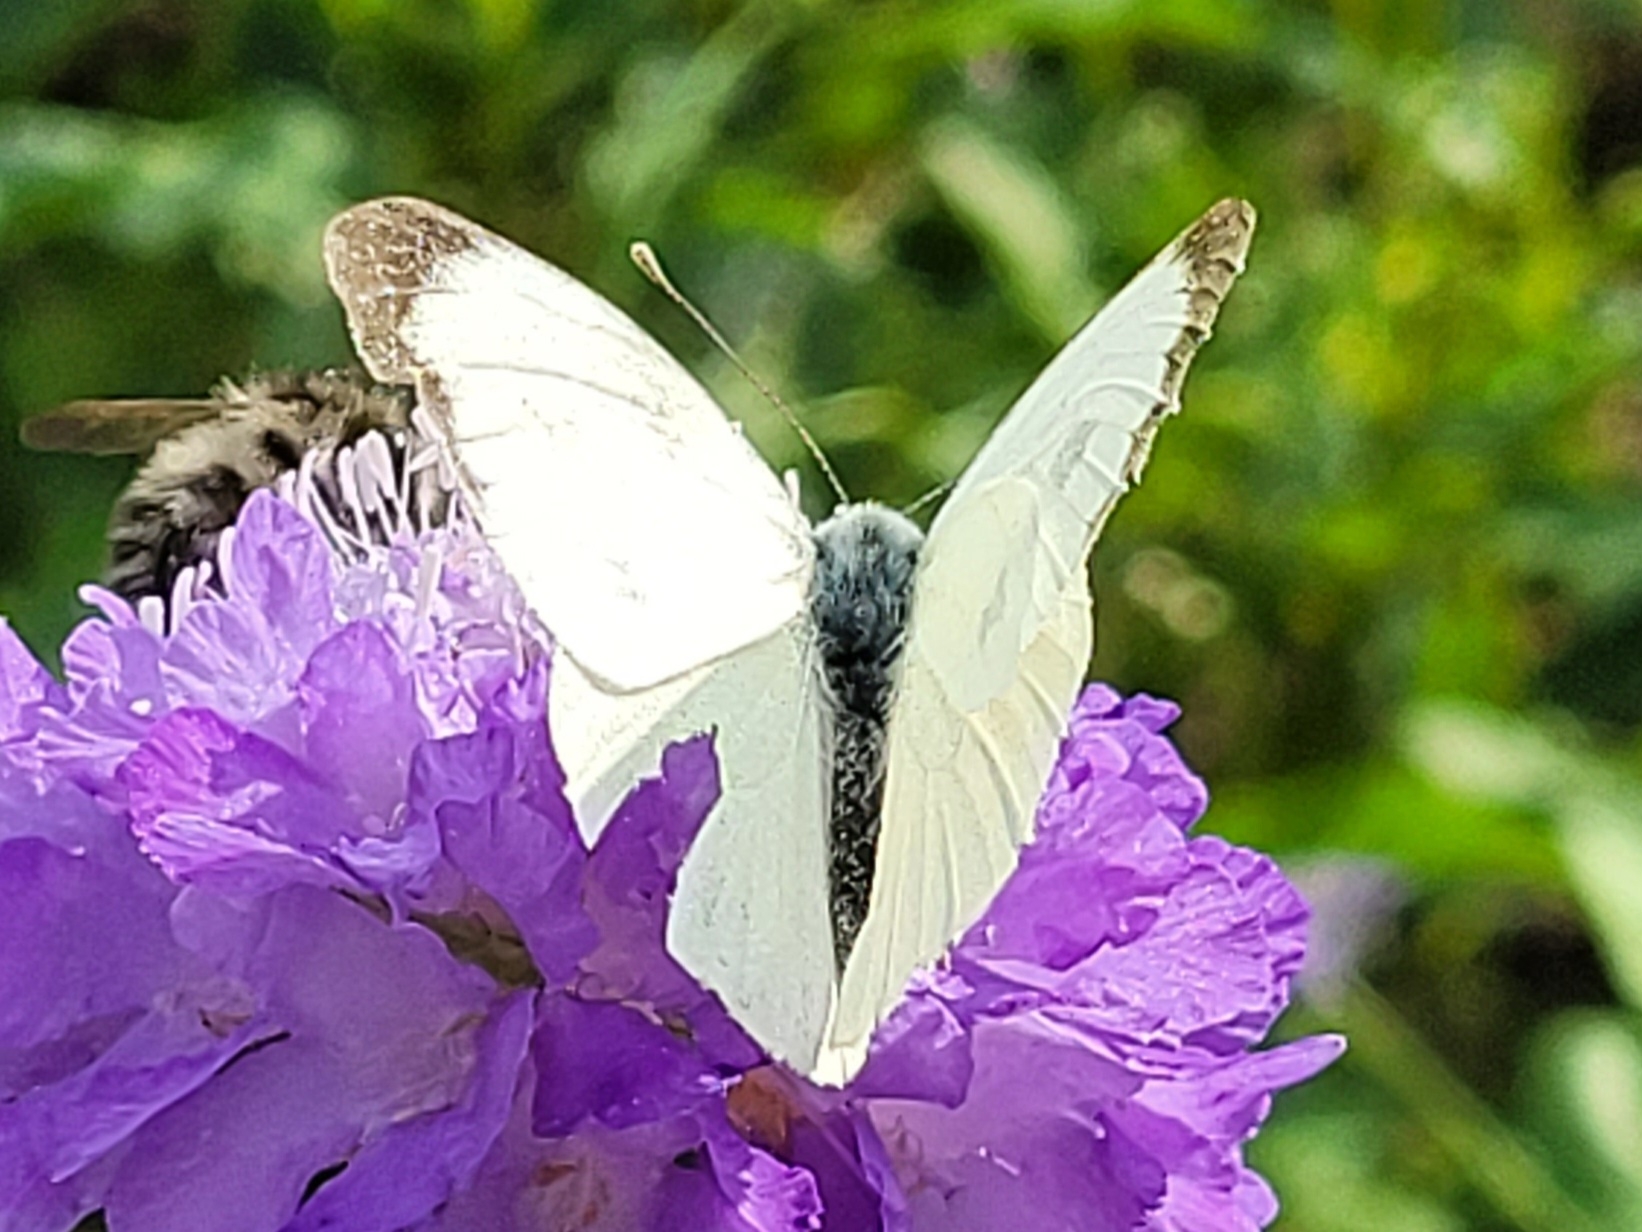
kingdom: Animalia
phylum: Arthropoda
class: Insecta
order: Lepidoptera
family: Pieridae
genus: Pieris
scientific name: Pieris brassicae
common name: Stor kålsommerfugl
